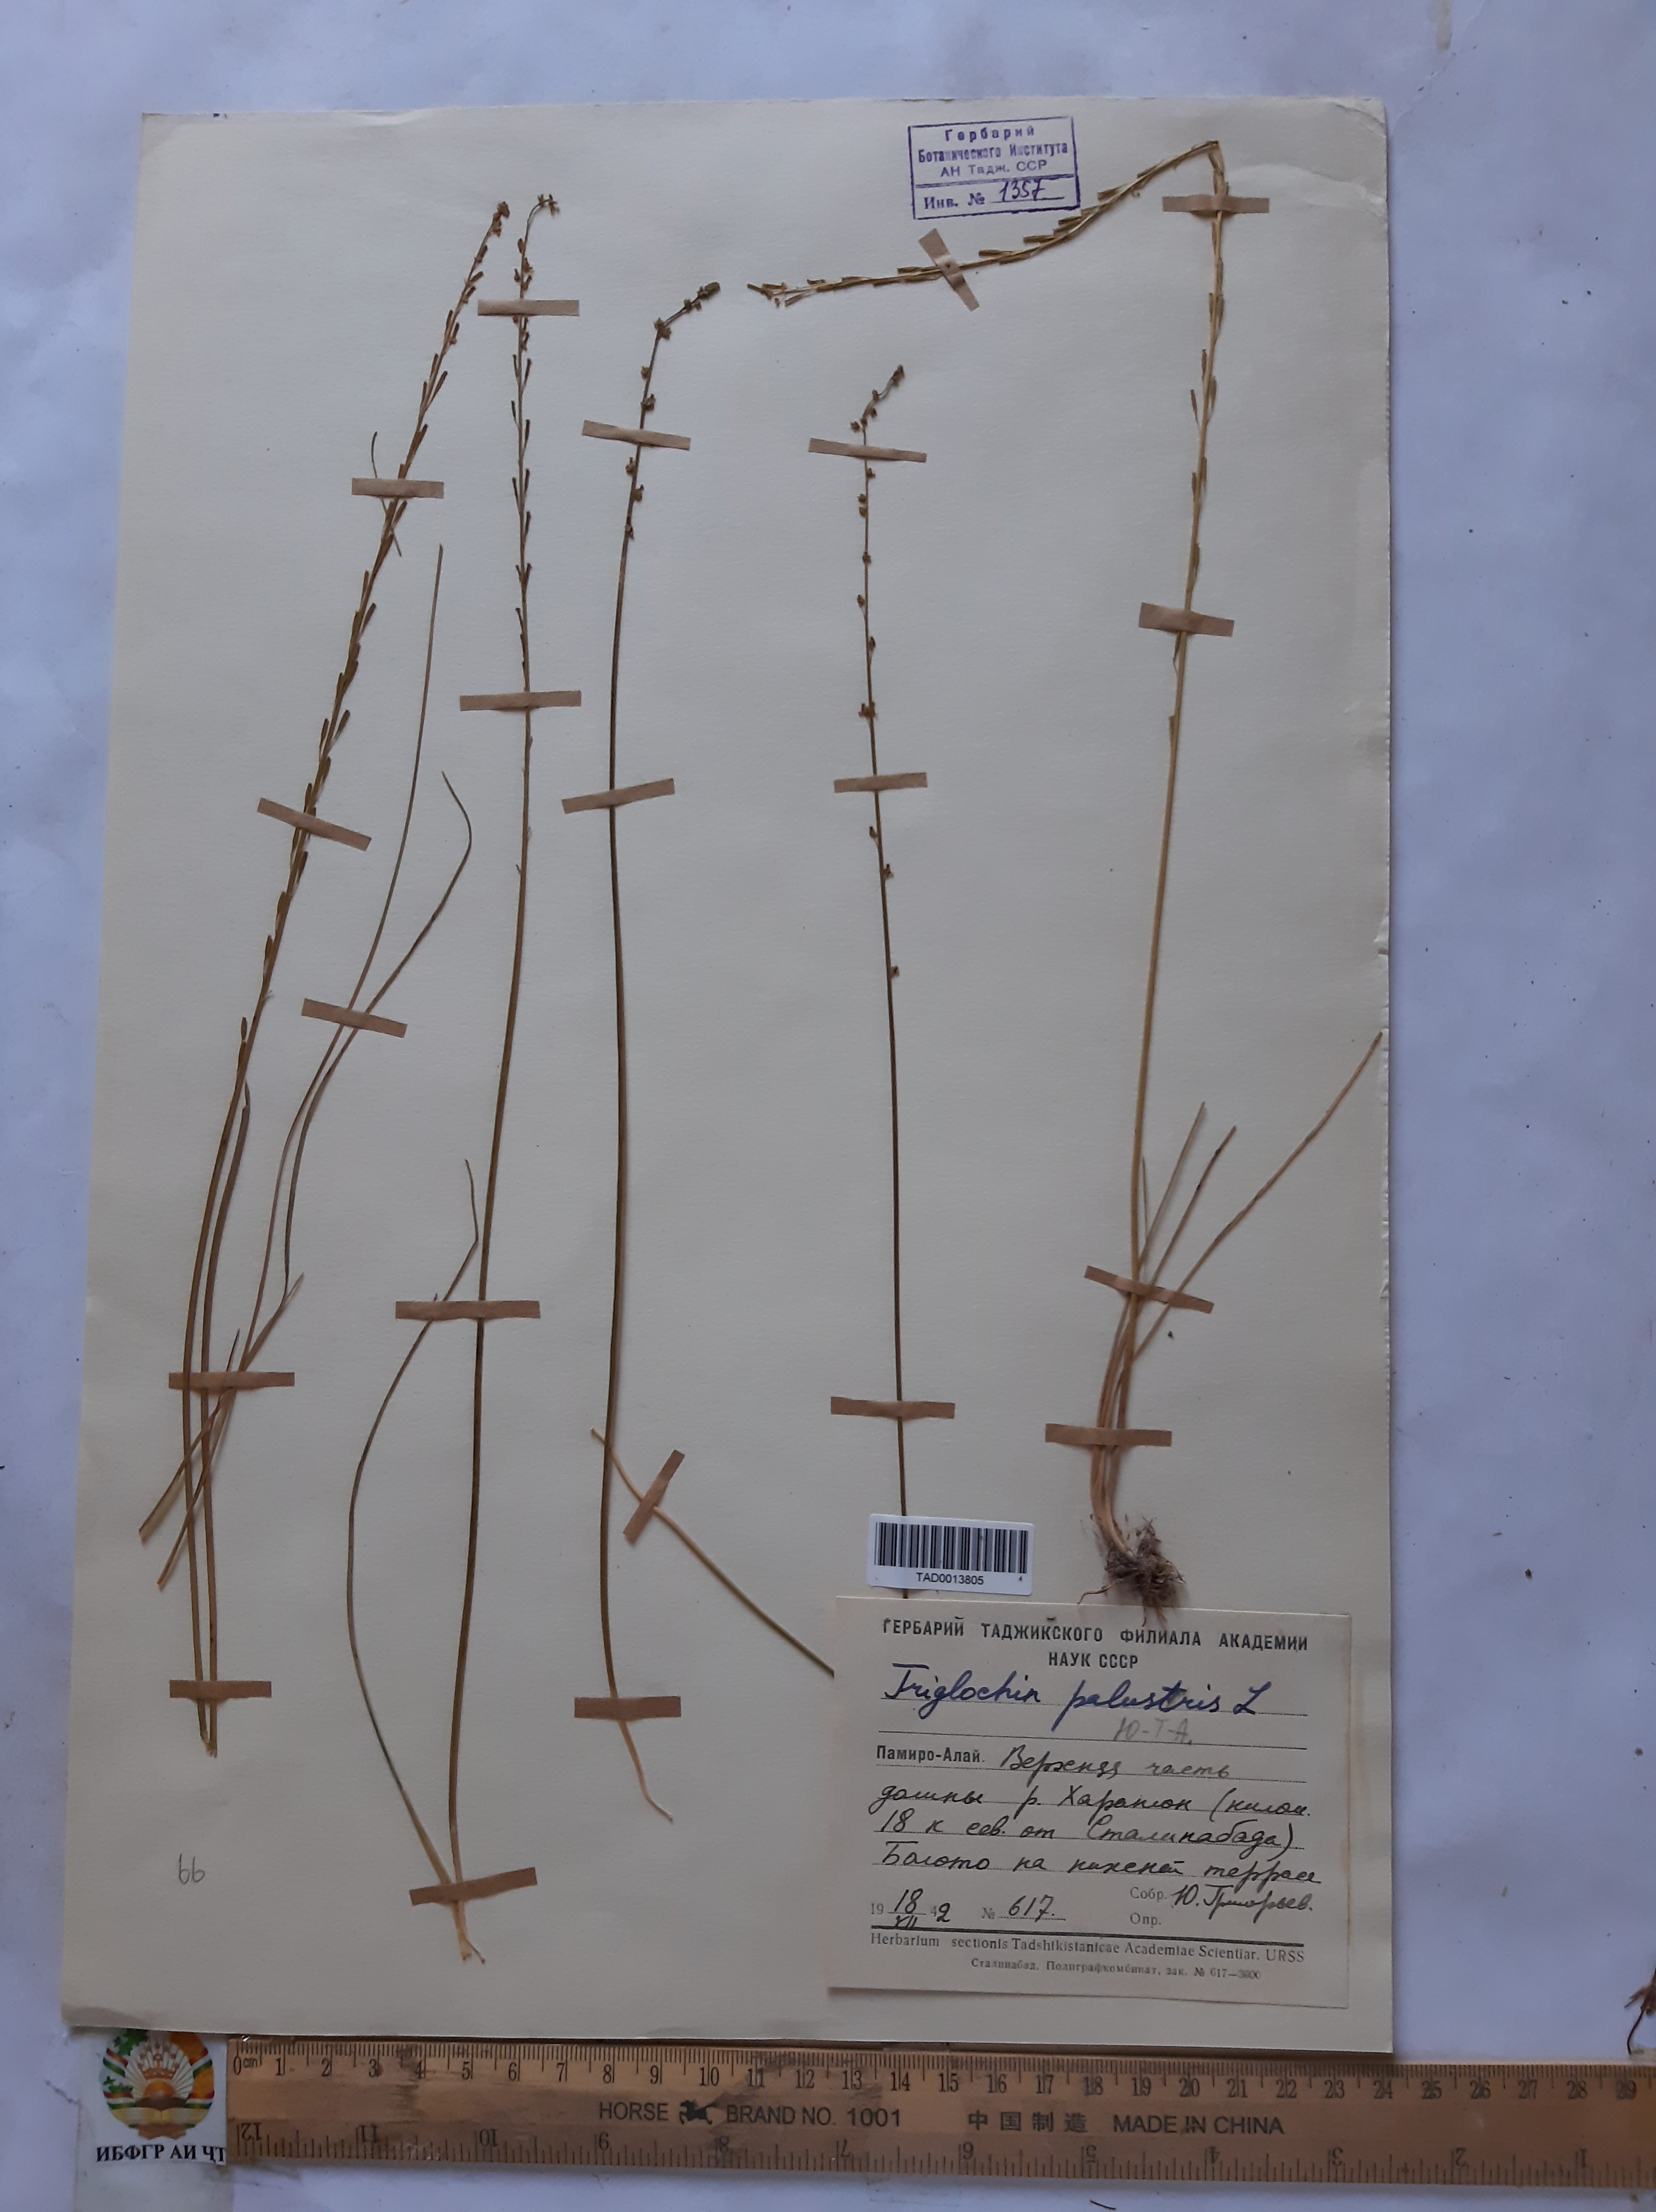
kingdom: Plantae
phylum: Tracheophyta
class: Liliopsida
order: Alismatales
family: Juncaginaceae
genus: Triglochin
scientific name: Triglochin palustris
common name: Marsh arrowgrass
